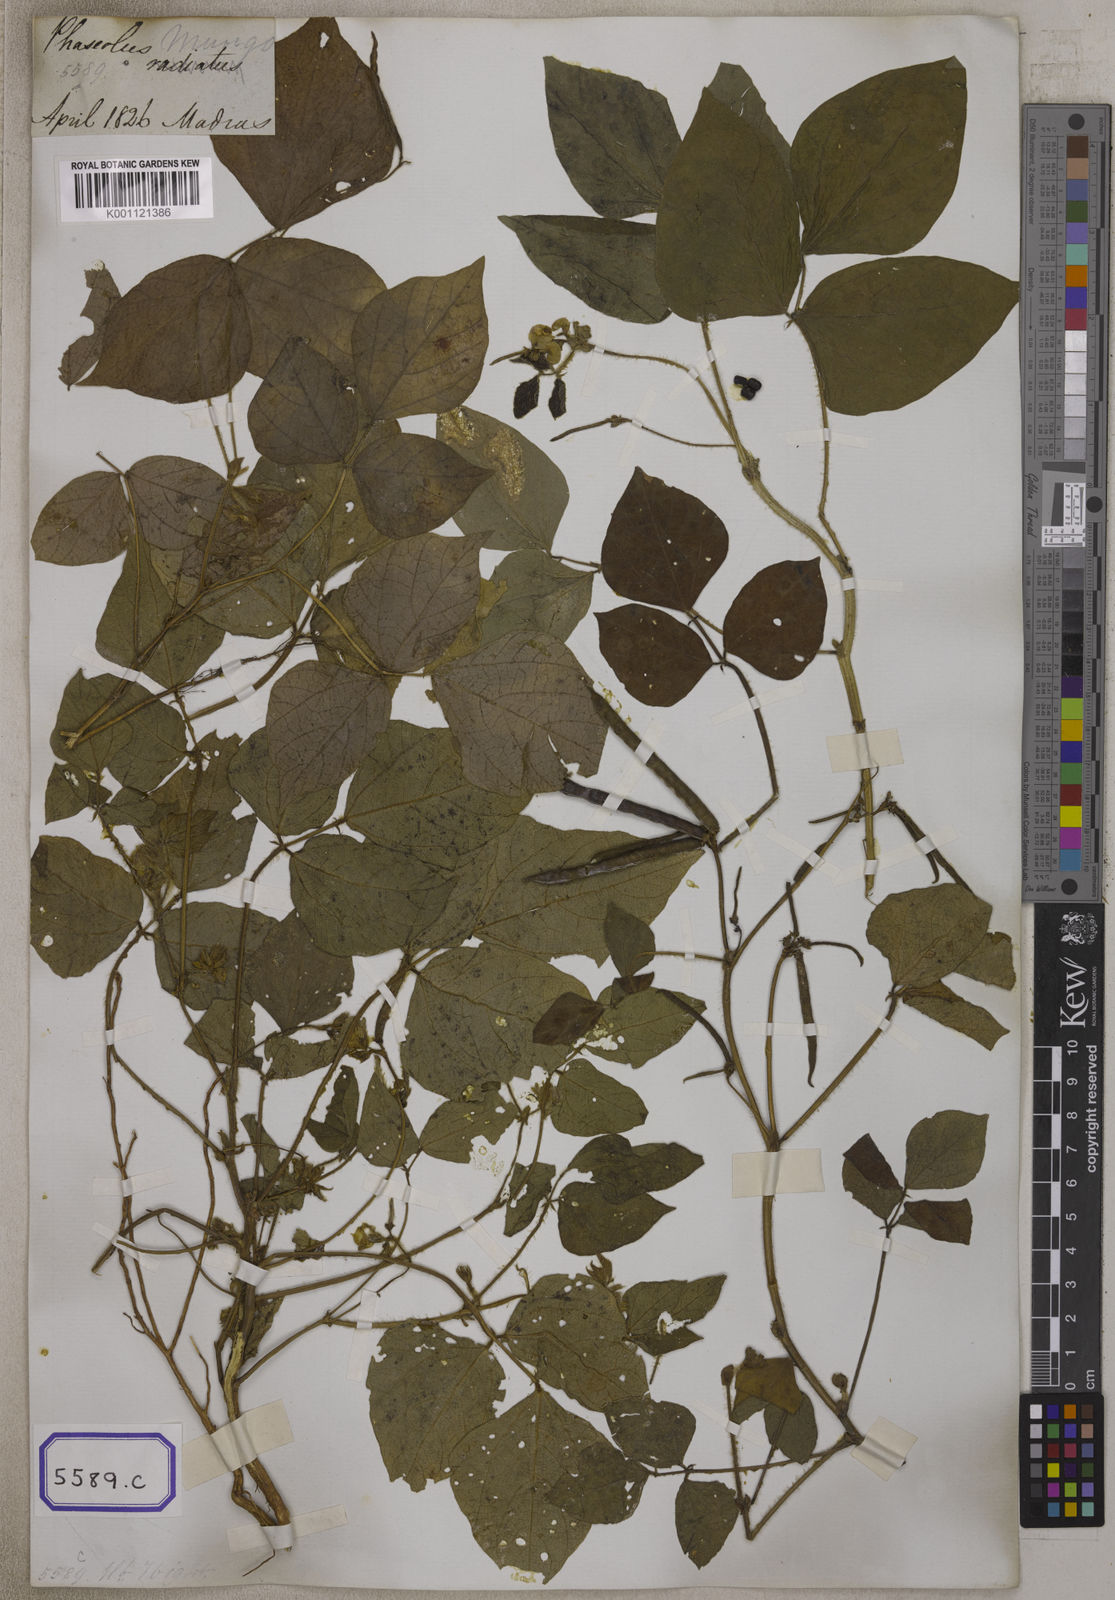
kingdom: Plantae
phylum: Tracheophyta
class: Magnoliopsida
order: Fabales
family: Fabaceae
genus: Phaseolus
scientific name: Phaseolus
